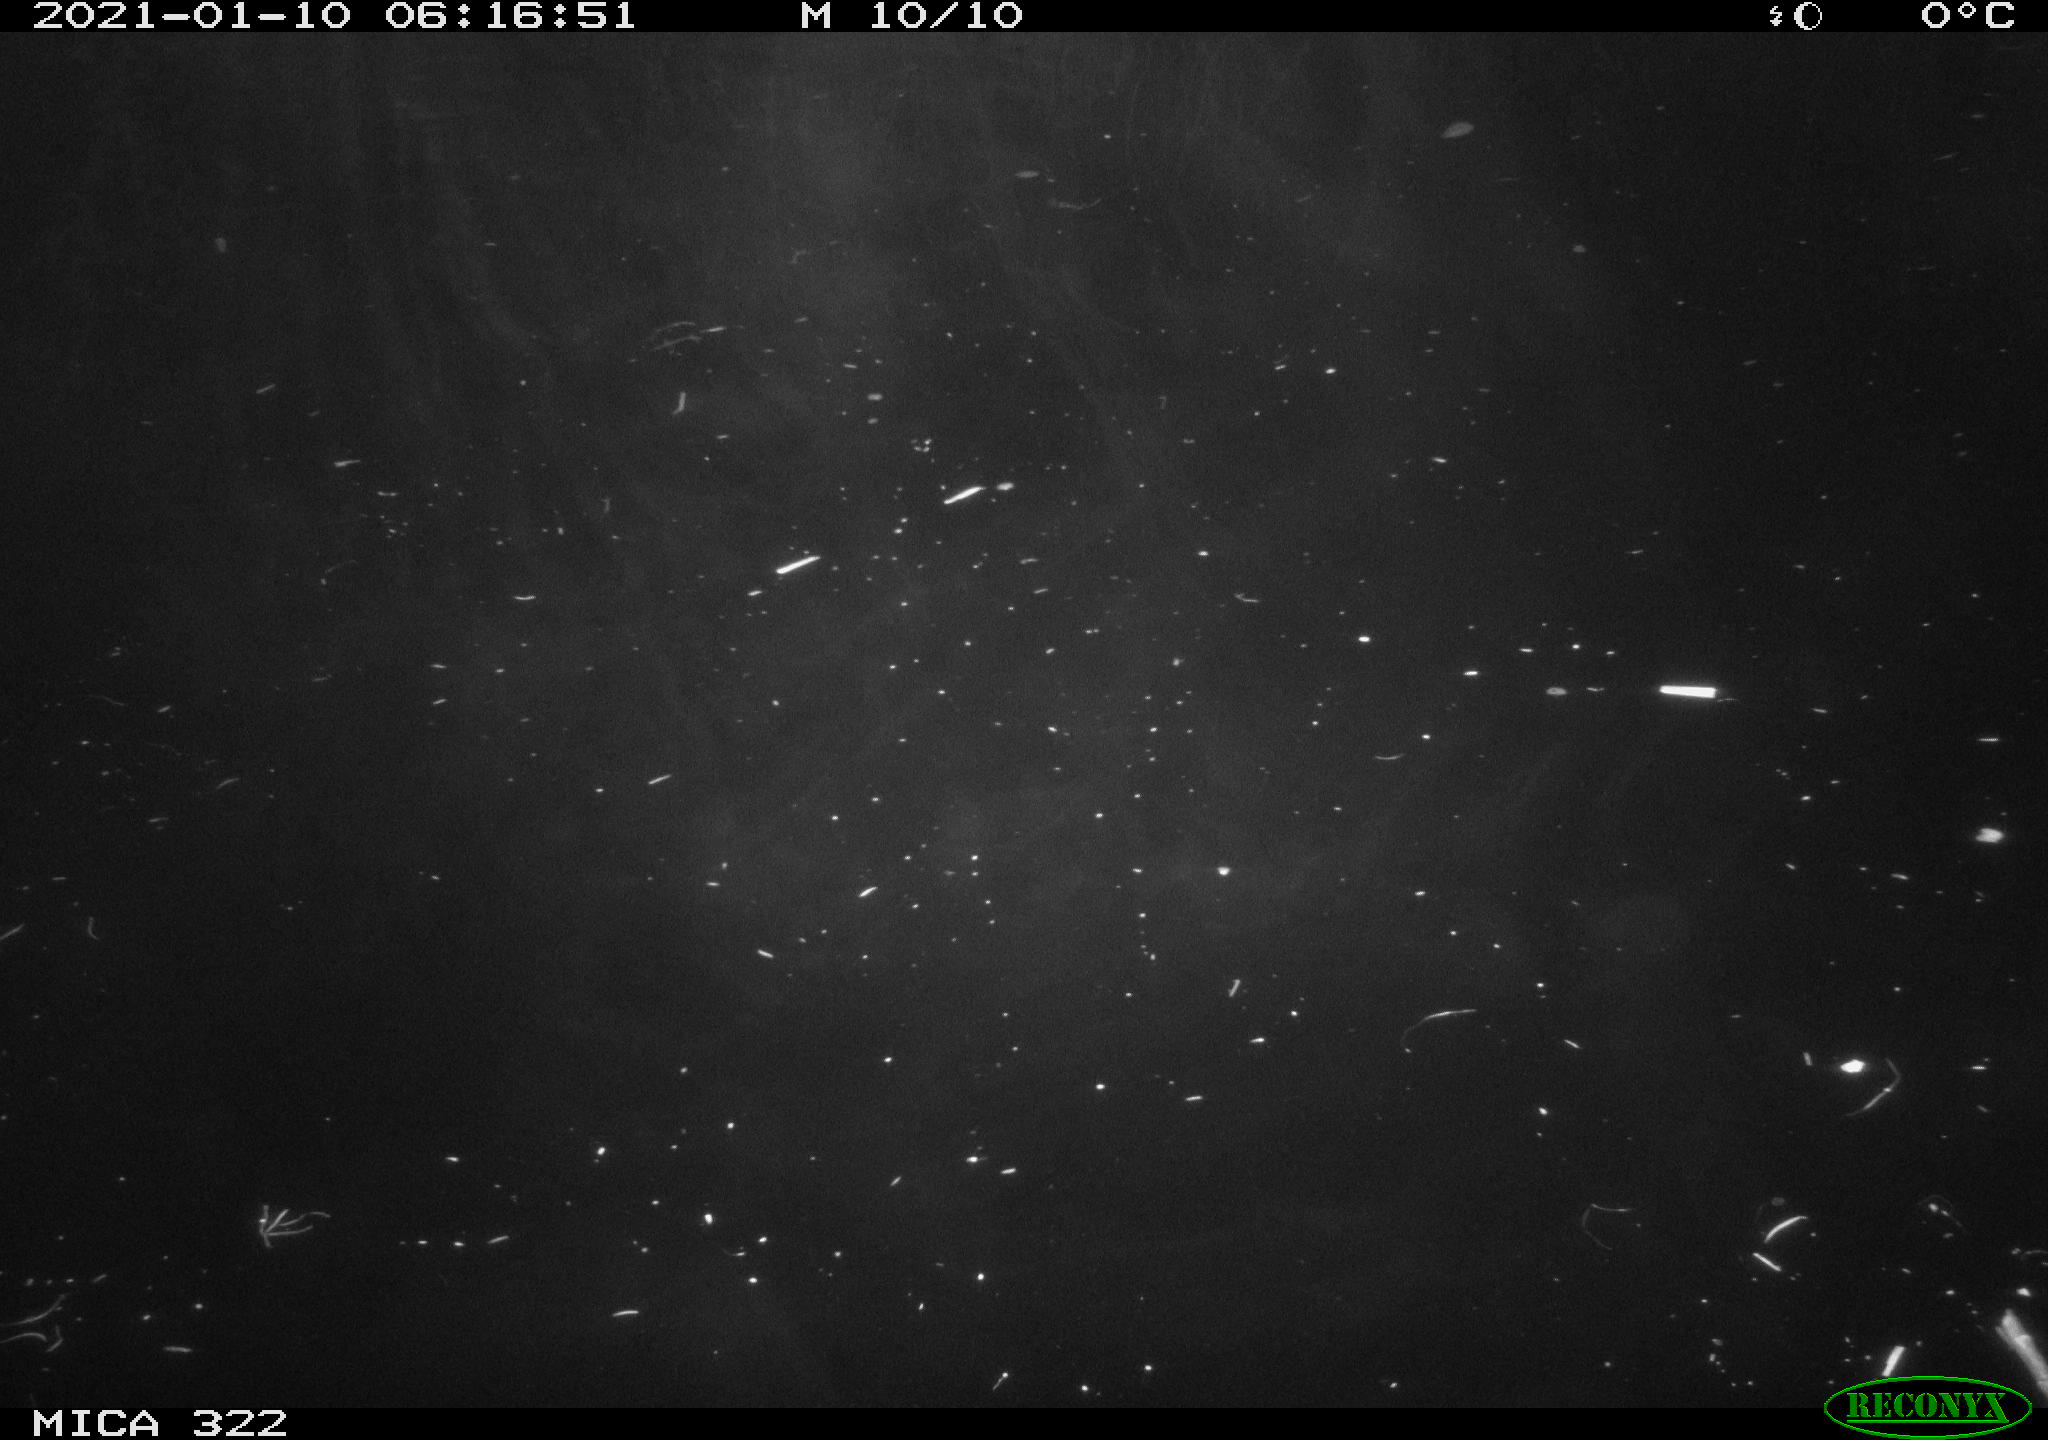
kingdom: Animalia
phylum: Chordata
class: Aves
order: Anseriformes
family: Anatidae
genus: Mareca
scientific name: Mareca strepera
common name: Gadwall
